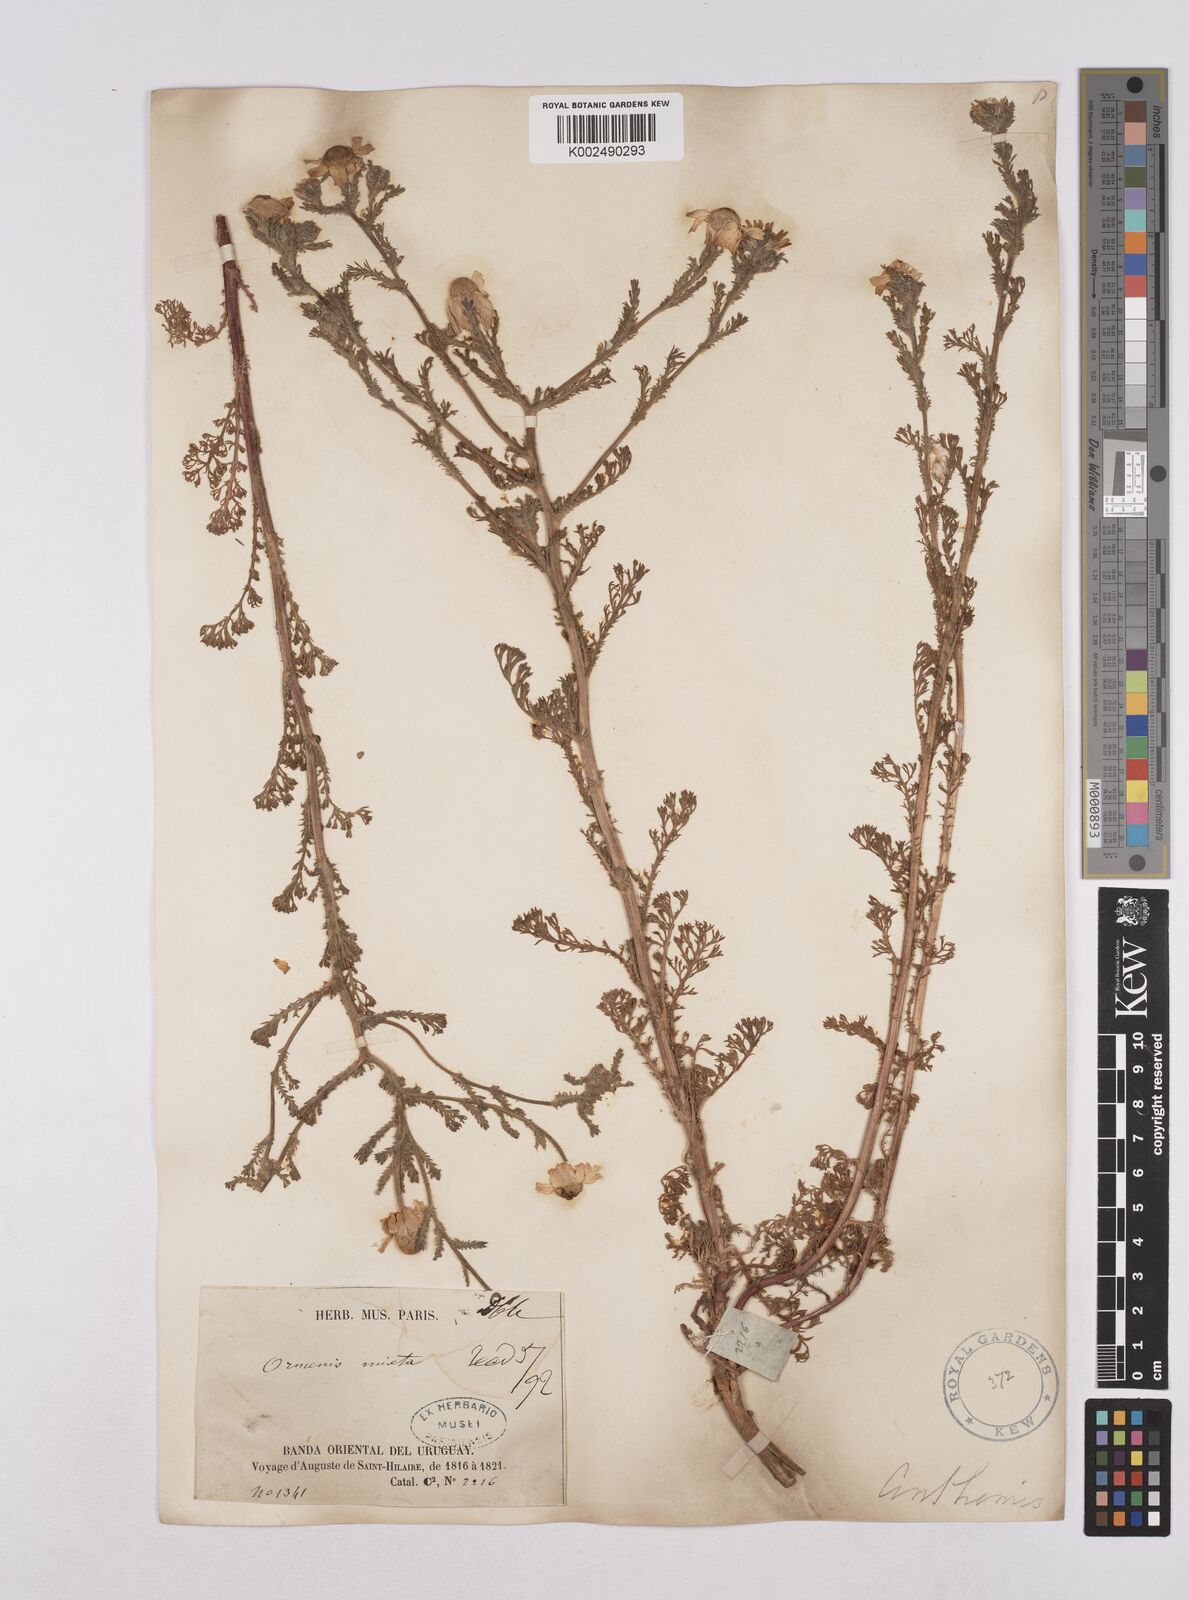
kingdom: Plantae
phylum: Tracheophyta
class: Magnoliopsida
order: Asterales
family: Asteraceae
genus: Cladanthus
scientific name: Cladanthus mixtus
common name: Weedy dogfennel
